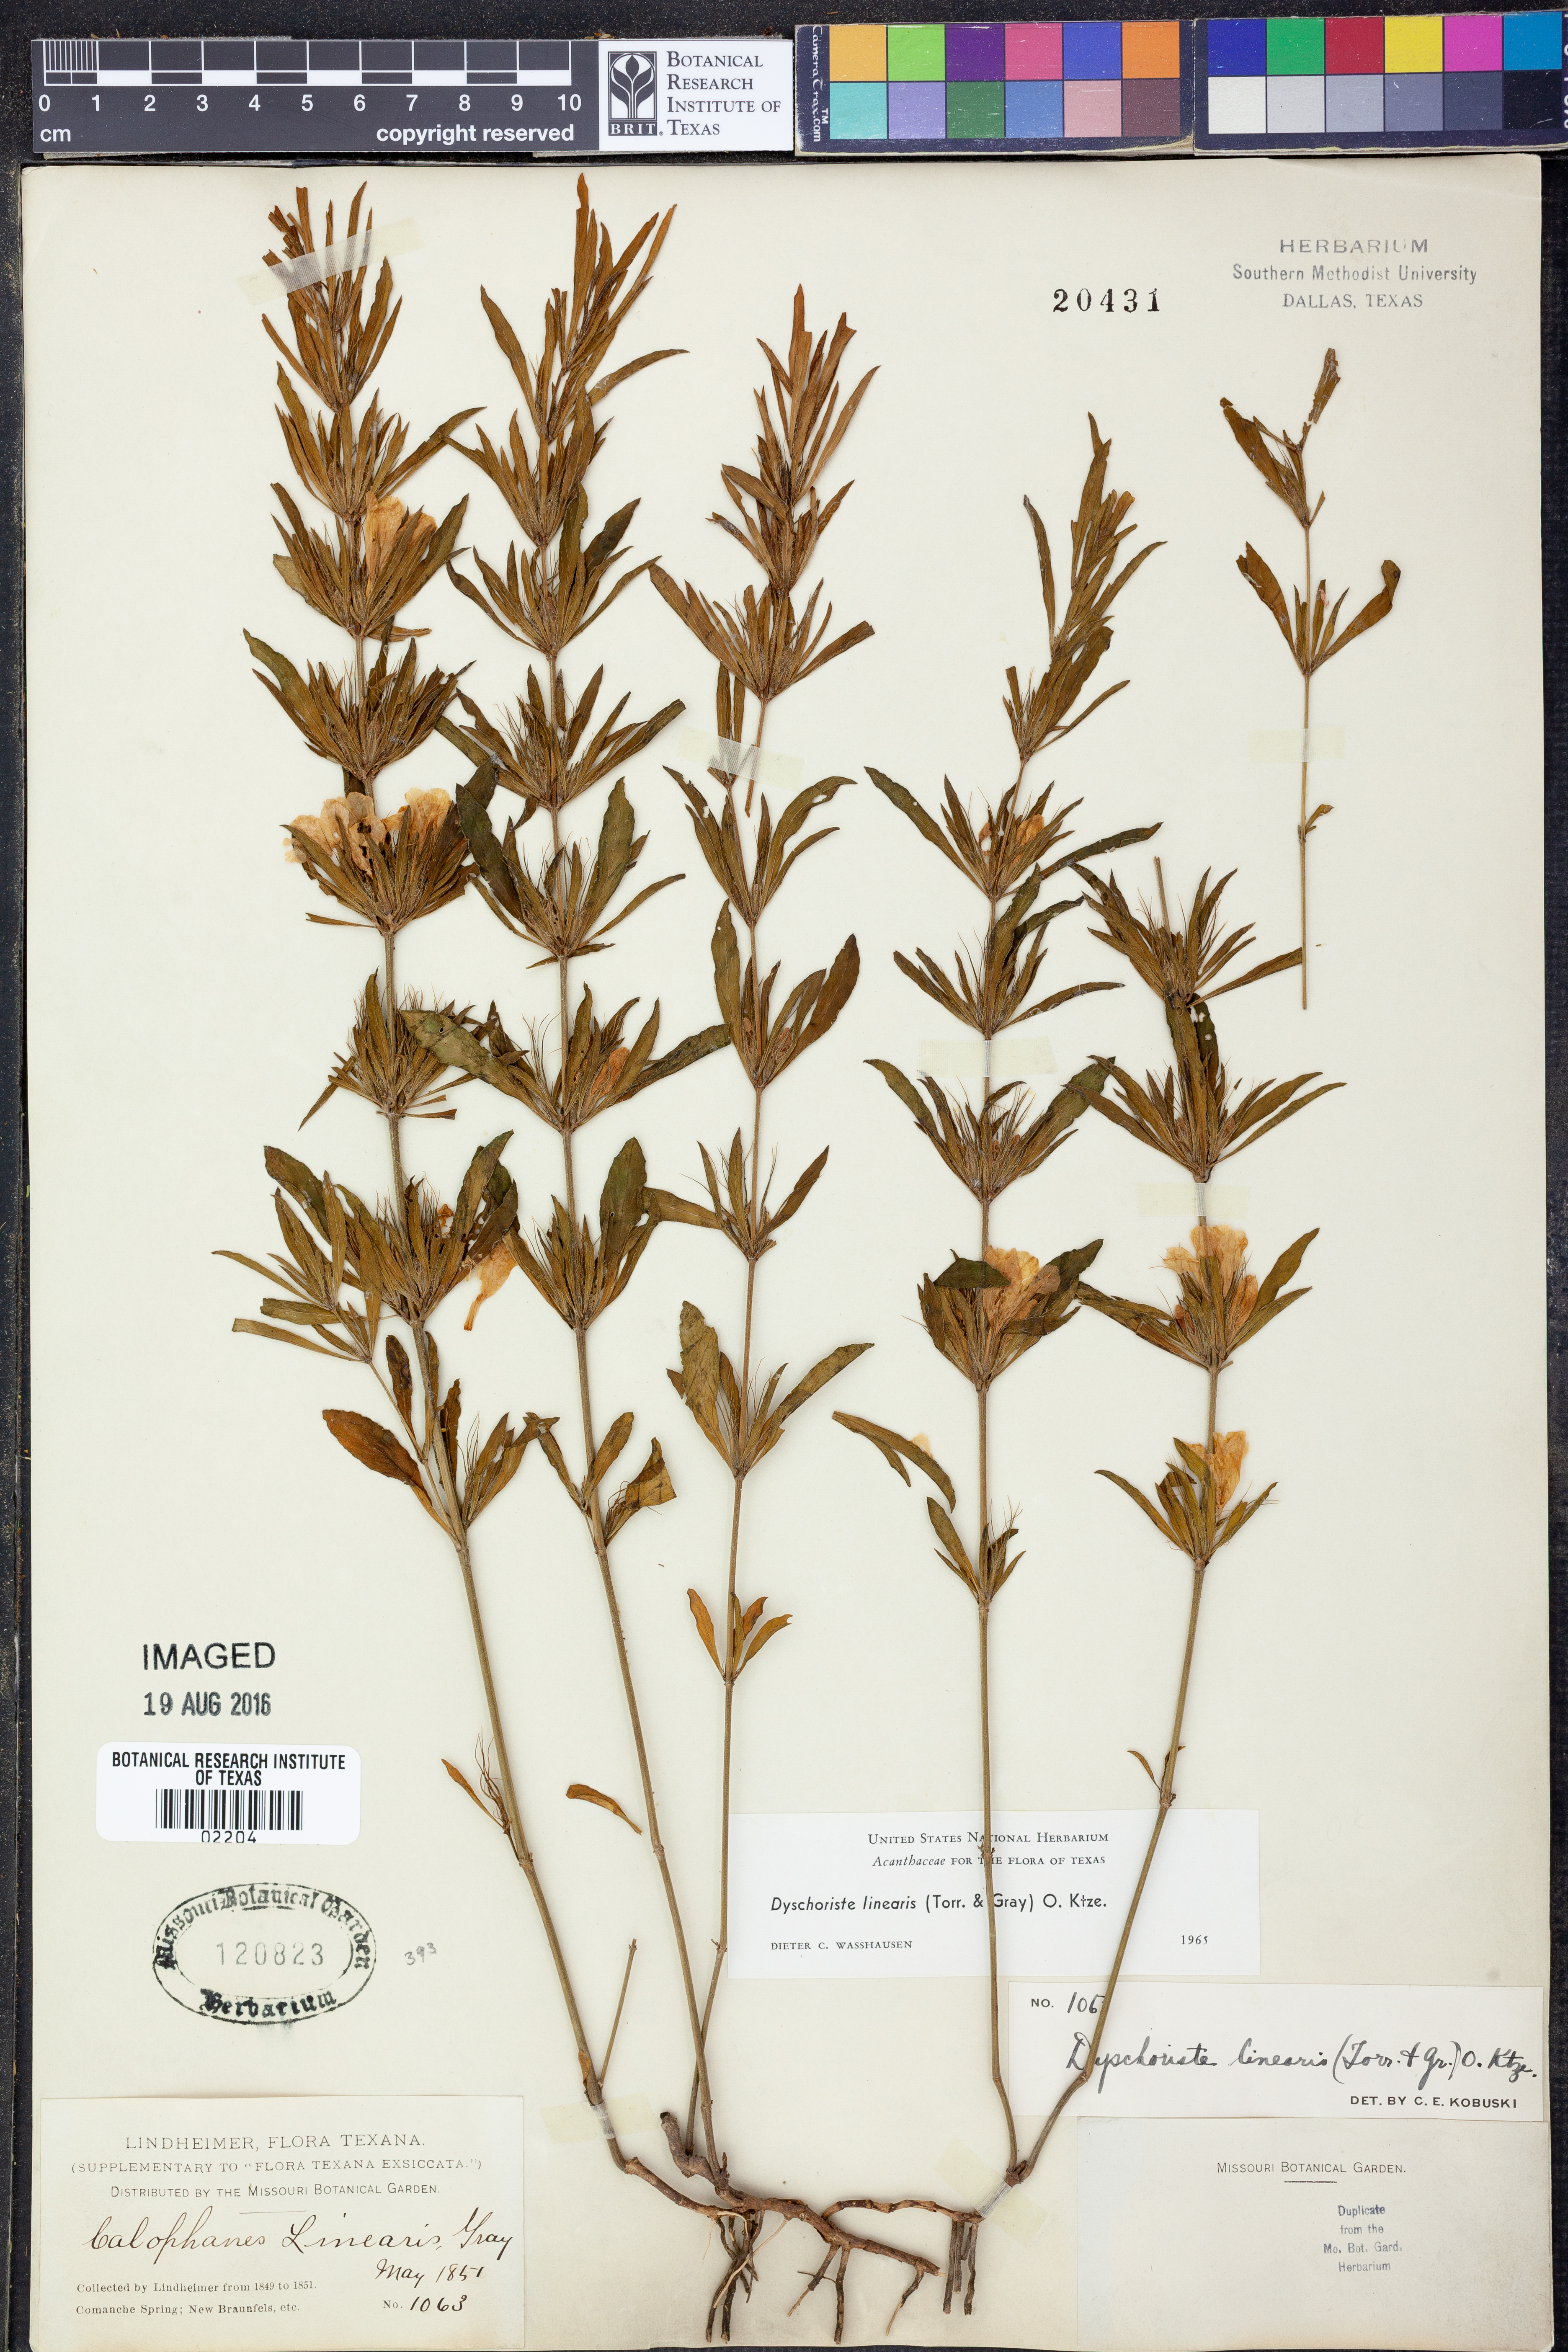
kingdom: Plantae
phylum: Tracheophyta
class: Magnoliopsida
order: Lamiales
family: Acanthaceae
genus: Dyschoriste
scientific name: Dyschoriste linearis
